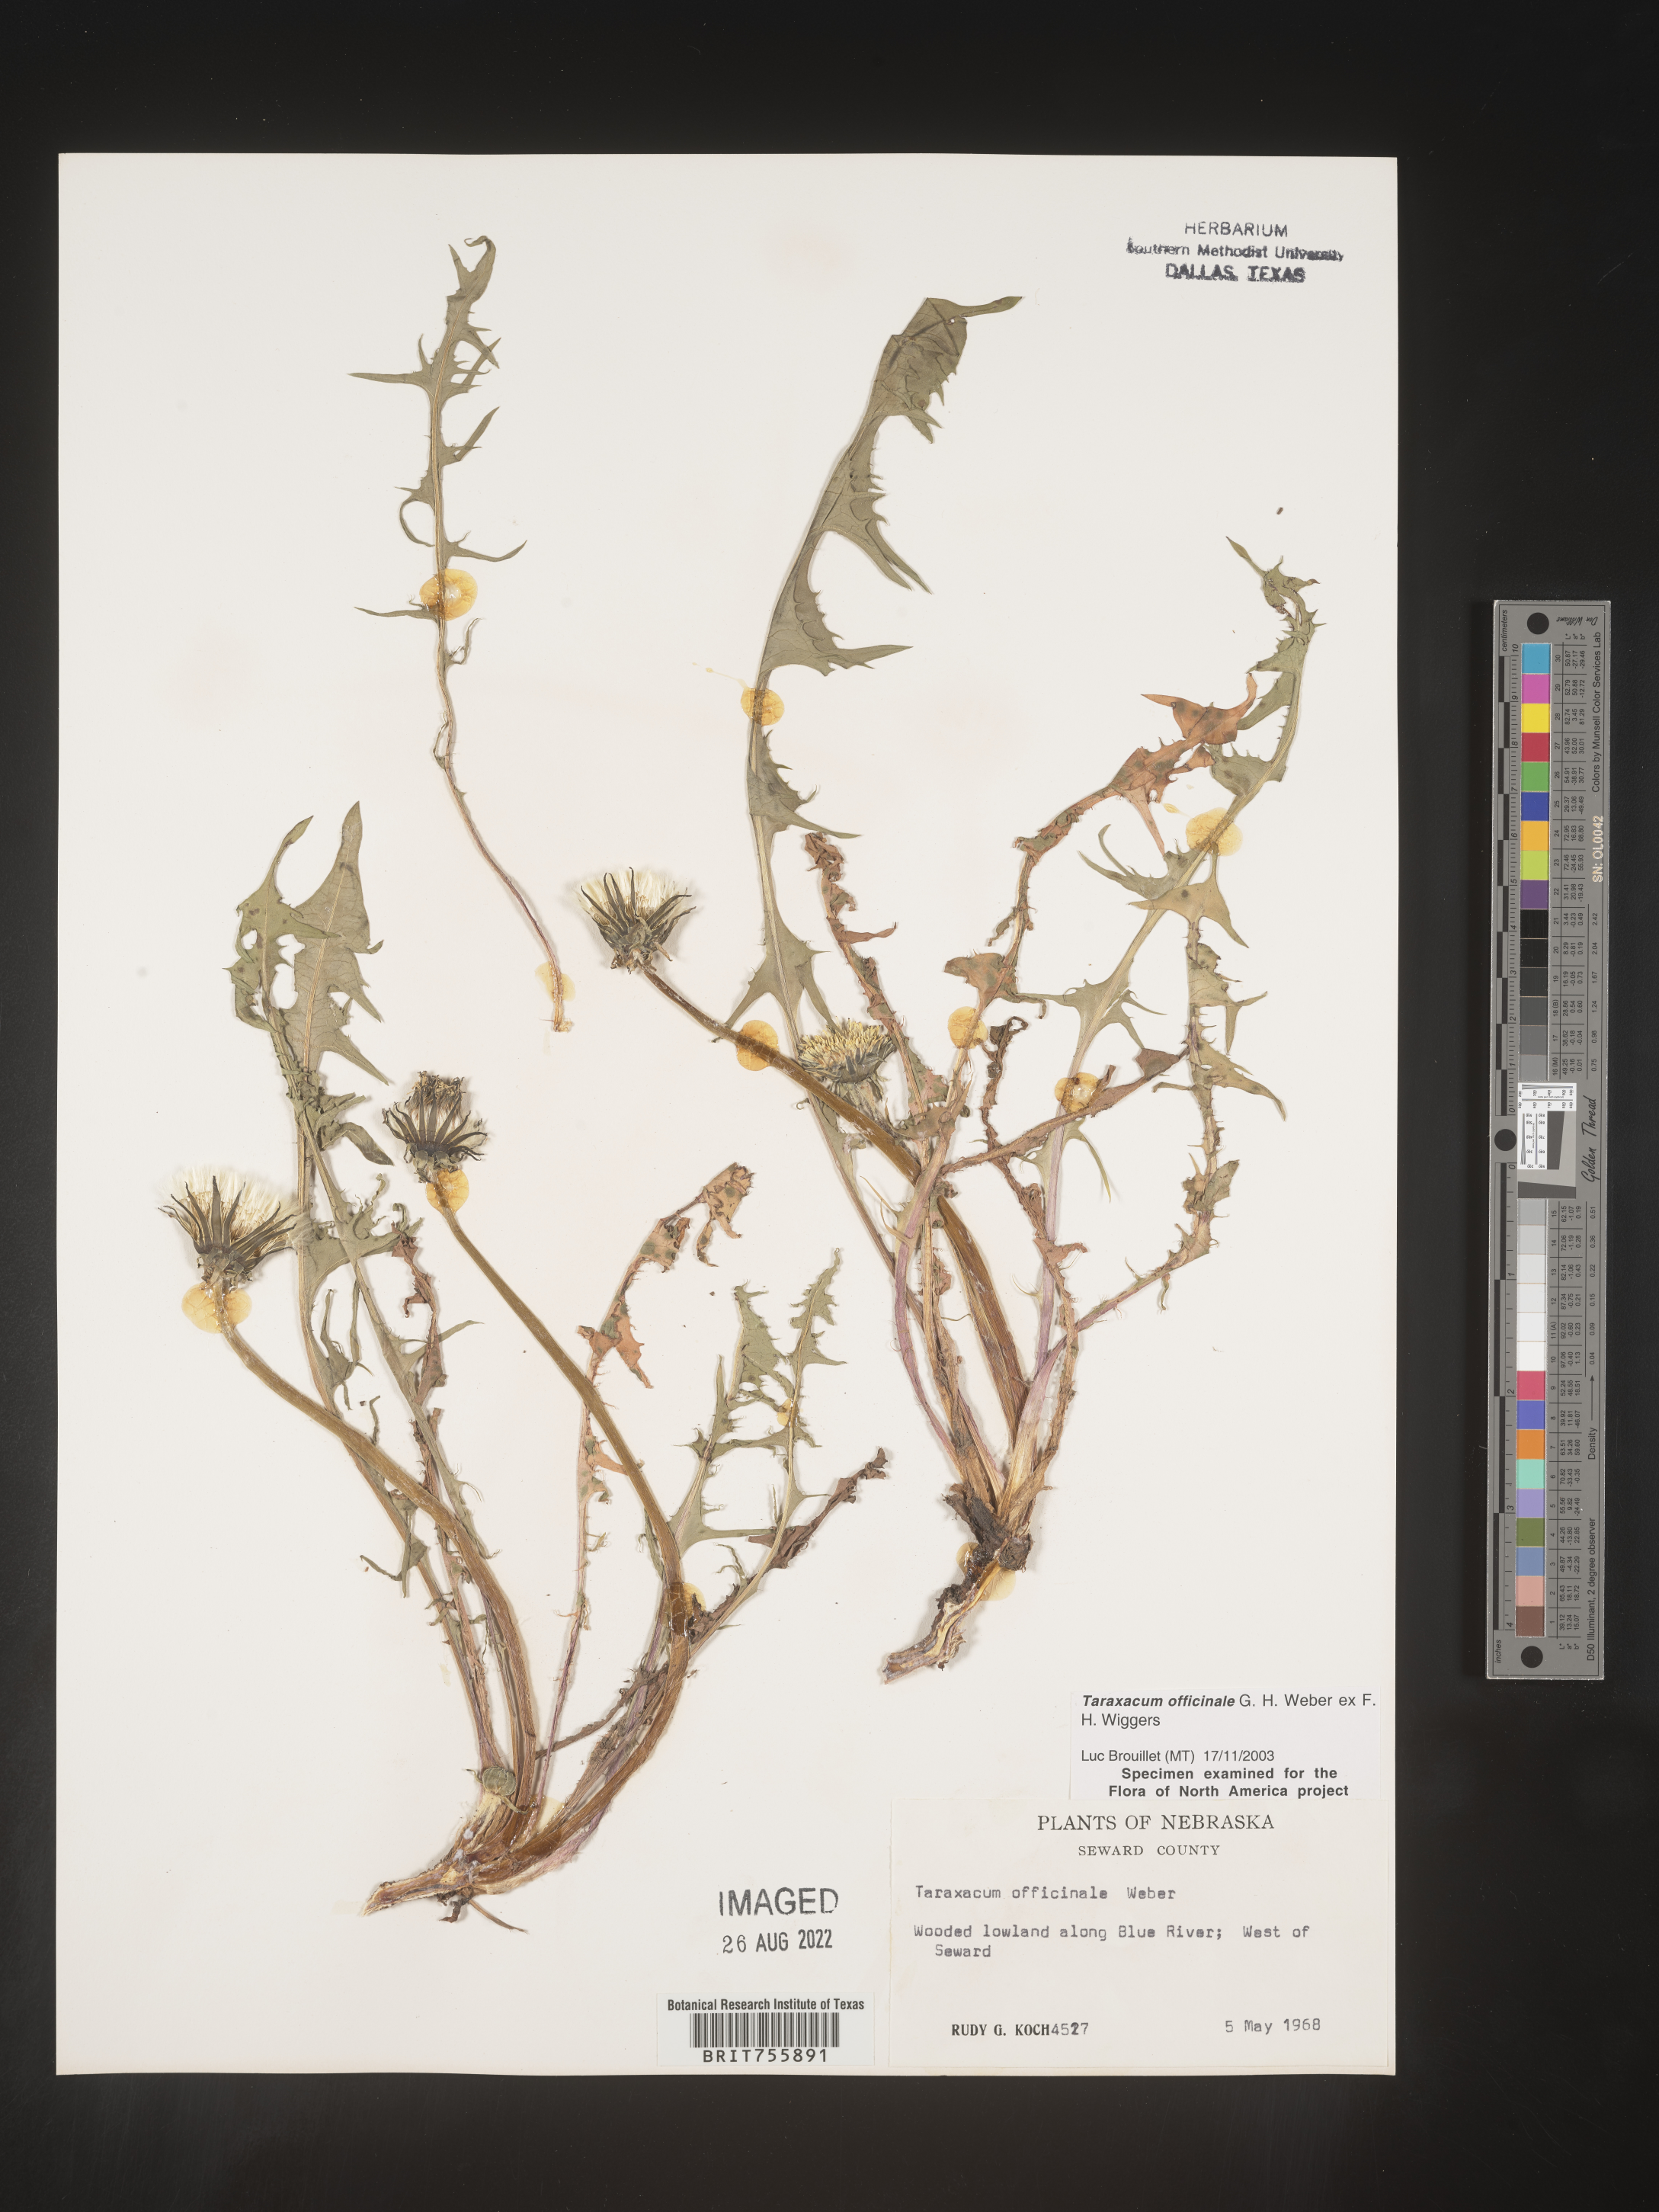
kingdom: Plantae
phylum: Tracheophyta
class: Magnoliopsida
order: Asterales
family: Asteraceae
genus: Taraxacum
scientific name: Taraxacum officinale
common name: Common dandelion
